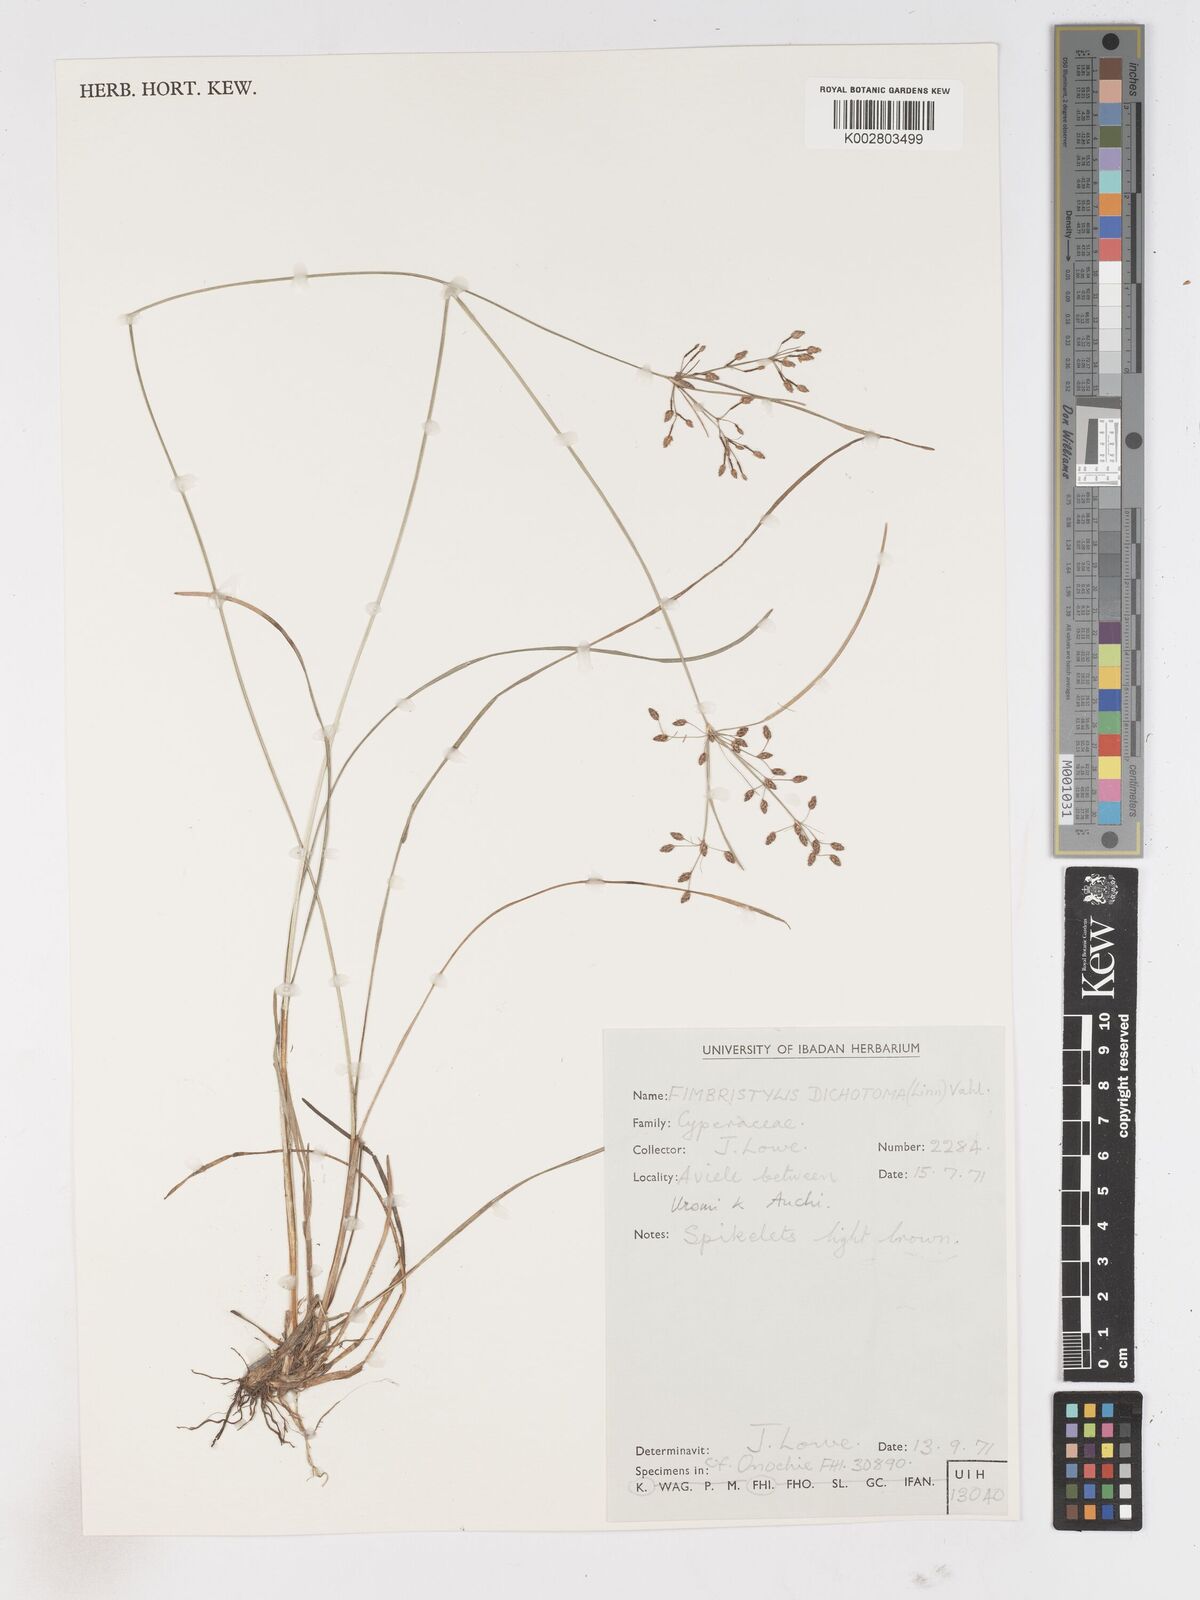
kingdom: Plantae
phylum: Tracheophyta
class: Liliopsida
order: Poales
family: Cyperaceae
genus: Fimbristylis
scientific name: Fimbristylis dichotoma
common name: Forked fimbry
